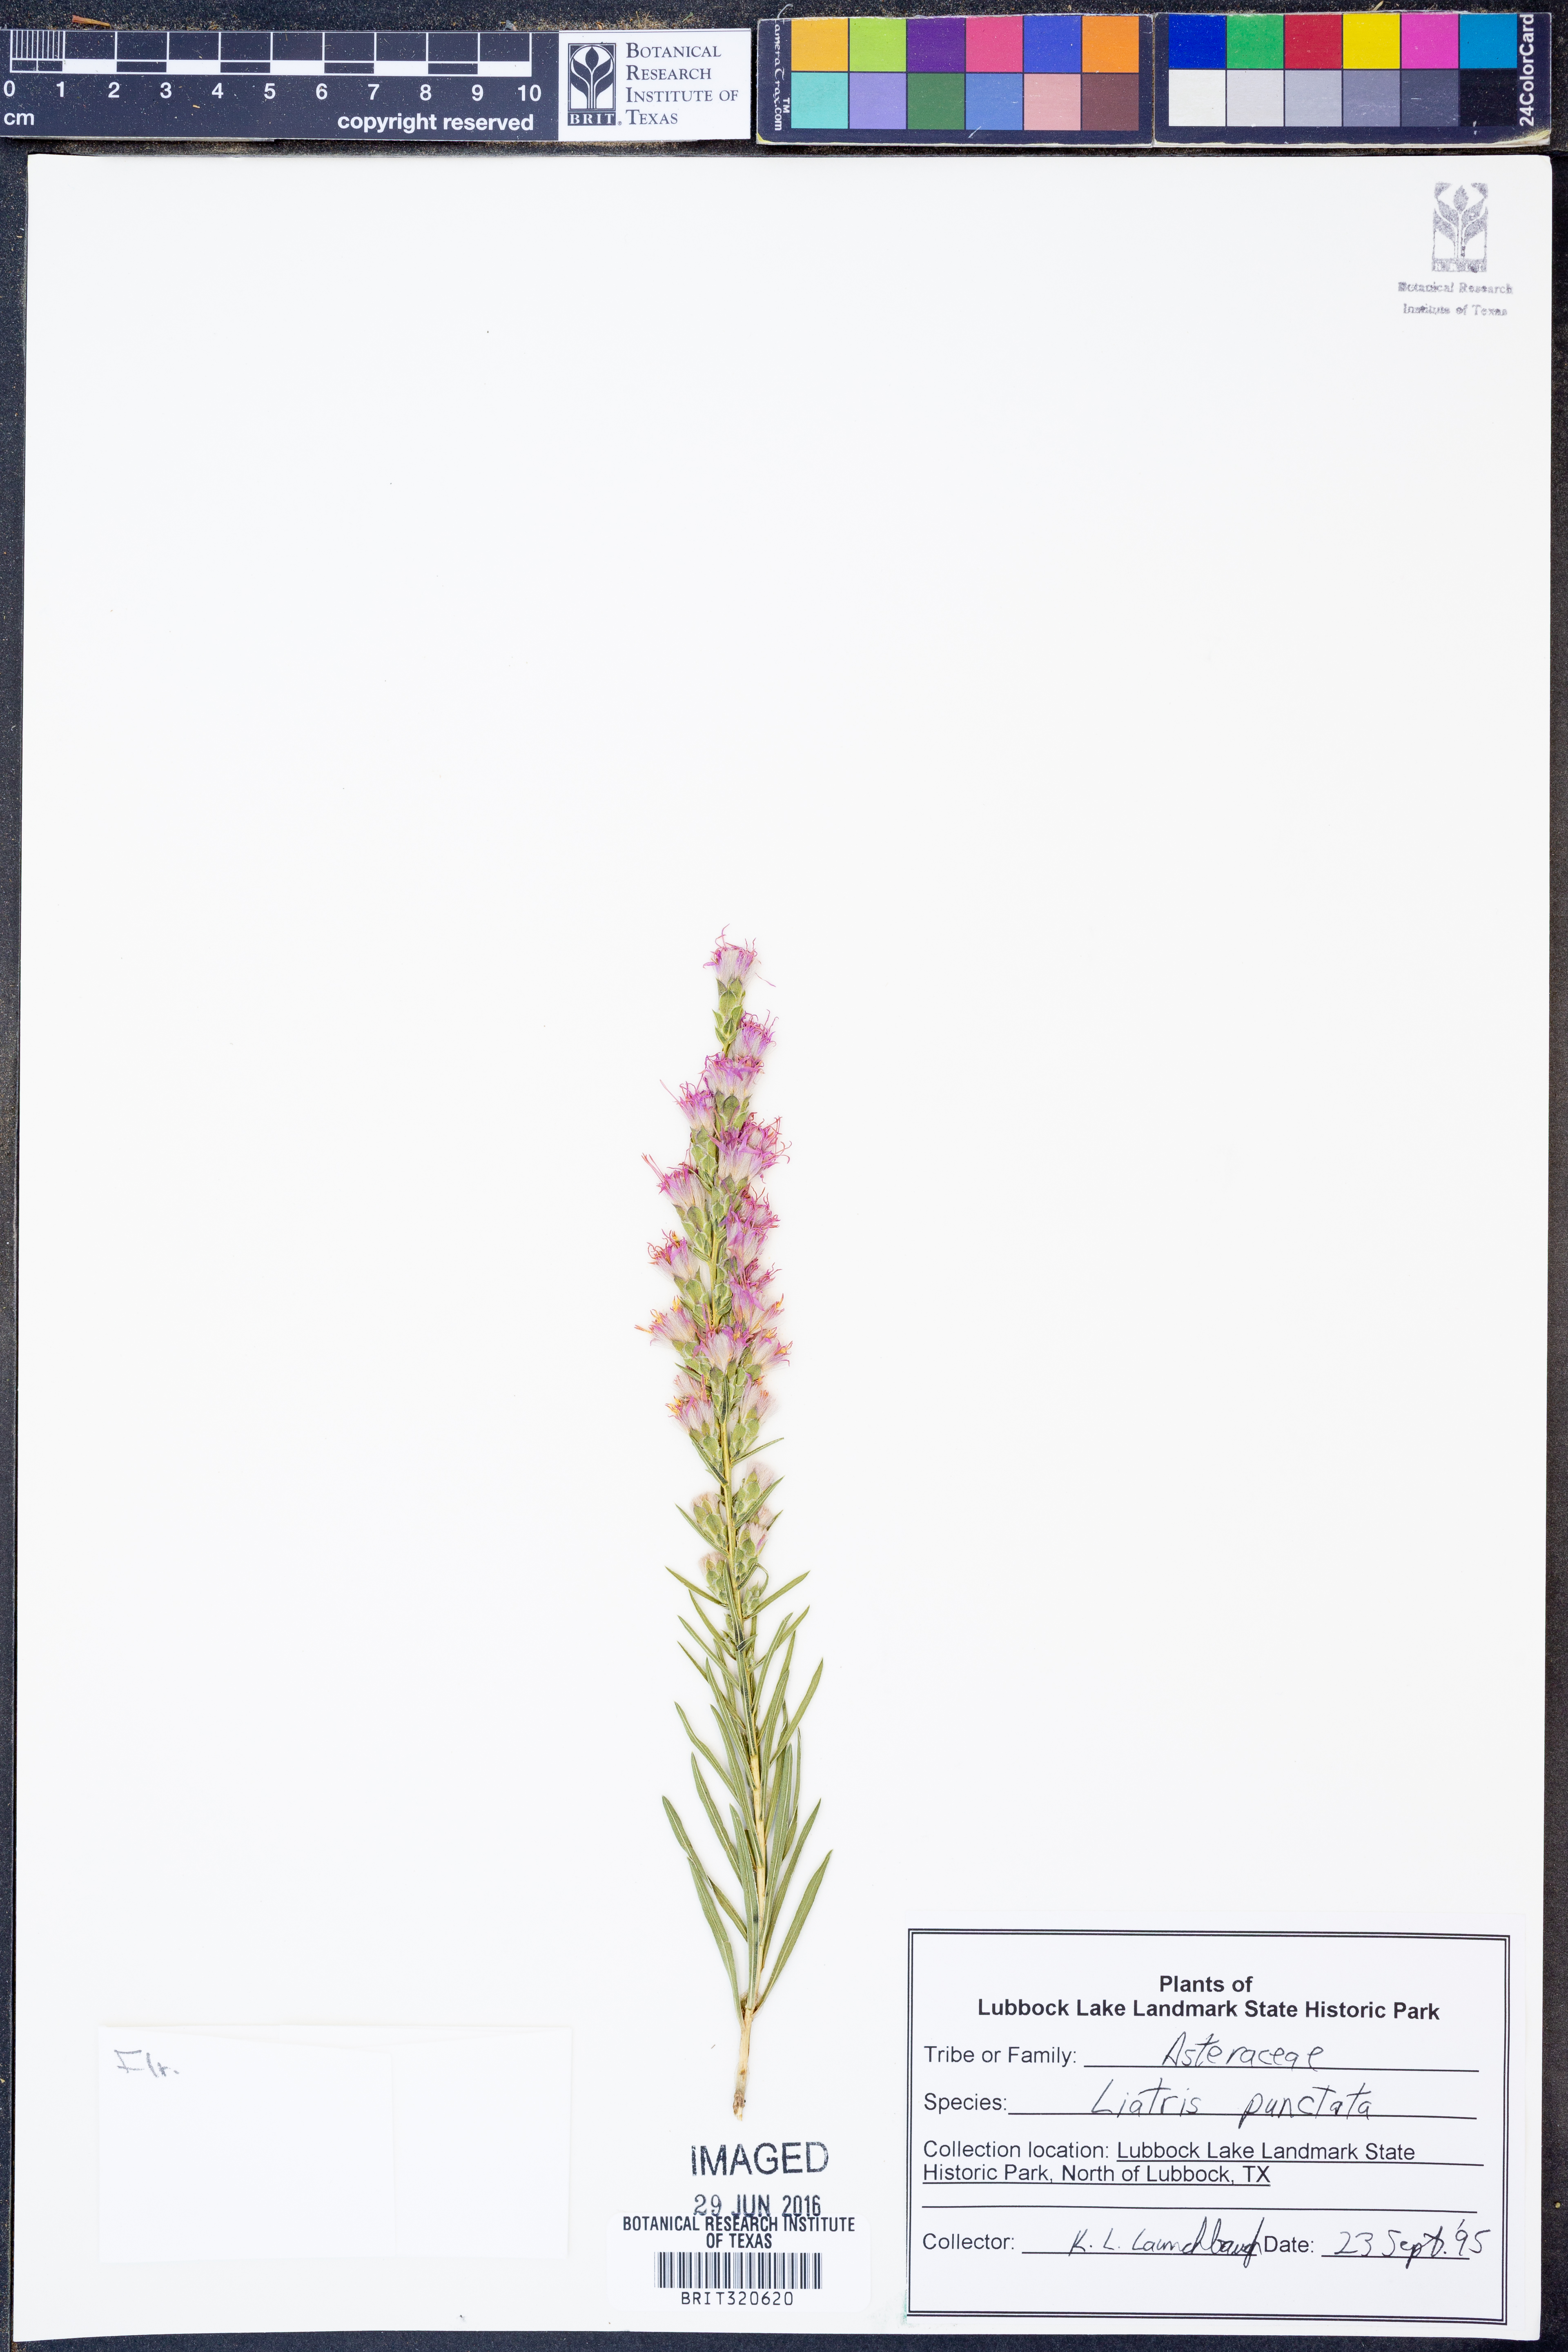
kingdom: Plantae
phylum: Tracheophyta
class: Magnoliopsida
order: Asterales
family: Asteraceae
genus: Liatris
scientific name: Liatris punctata
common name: Dotted gayfeather
